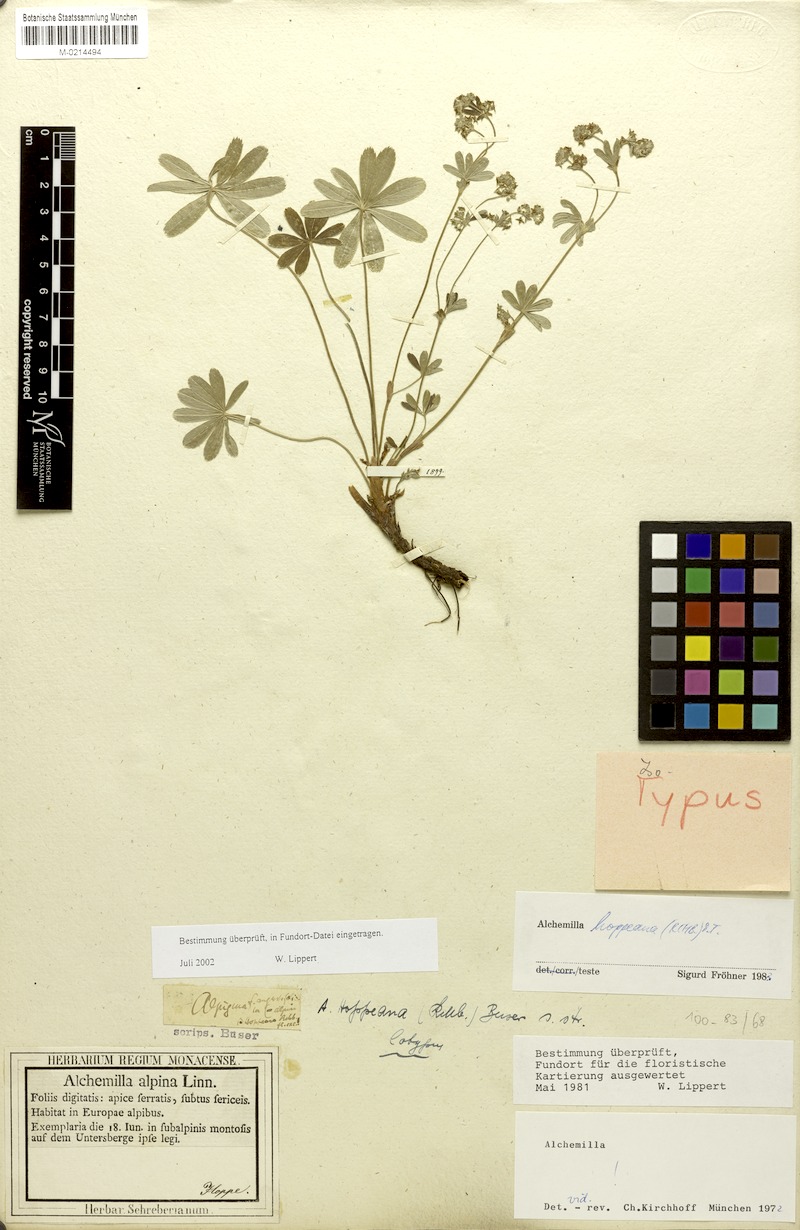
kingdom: Plantae
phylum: Tracheophyta
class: Magnoliopsida
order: Rosales
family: Rosaceae
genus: Alchemilla
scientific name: Alchemilla hoppeana
